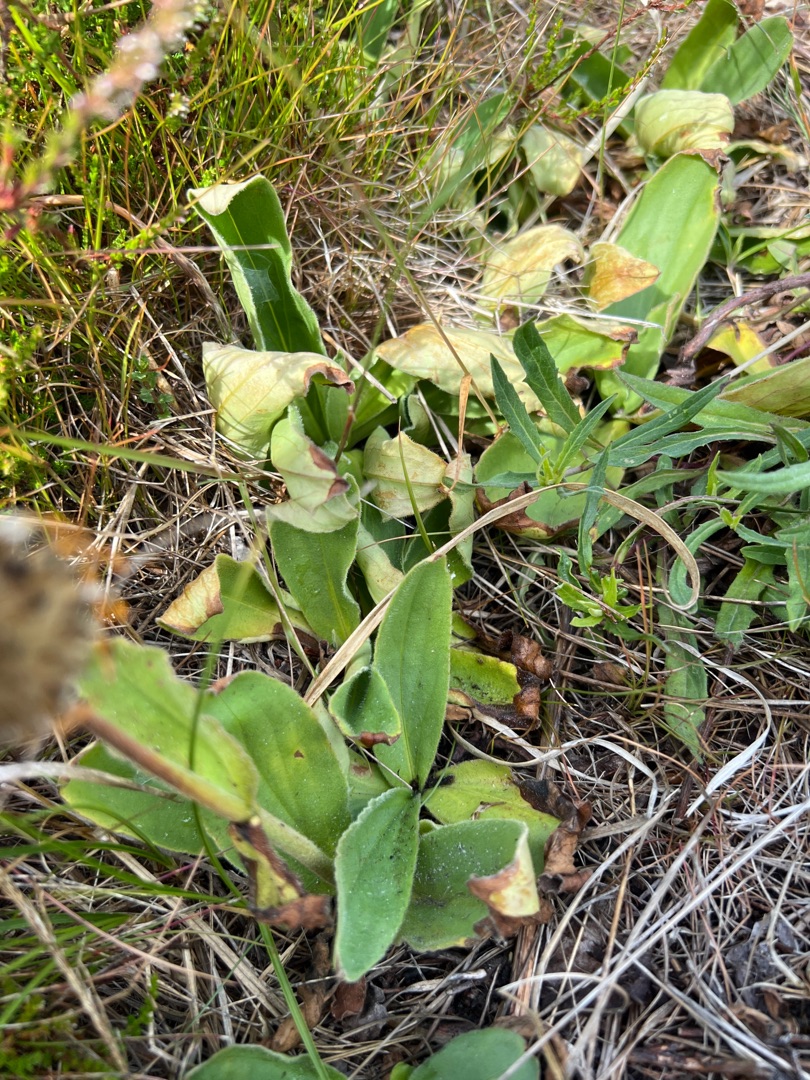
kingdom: Plantae
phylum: Tracheophyta
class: Magnoliopsida
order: Asterales
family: Asteraceae
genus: Arnica
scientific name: Arnica montana
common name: Guldblomme
